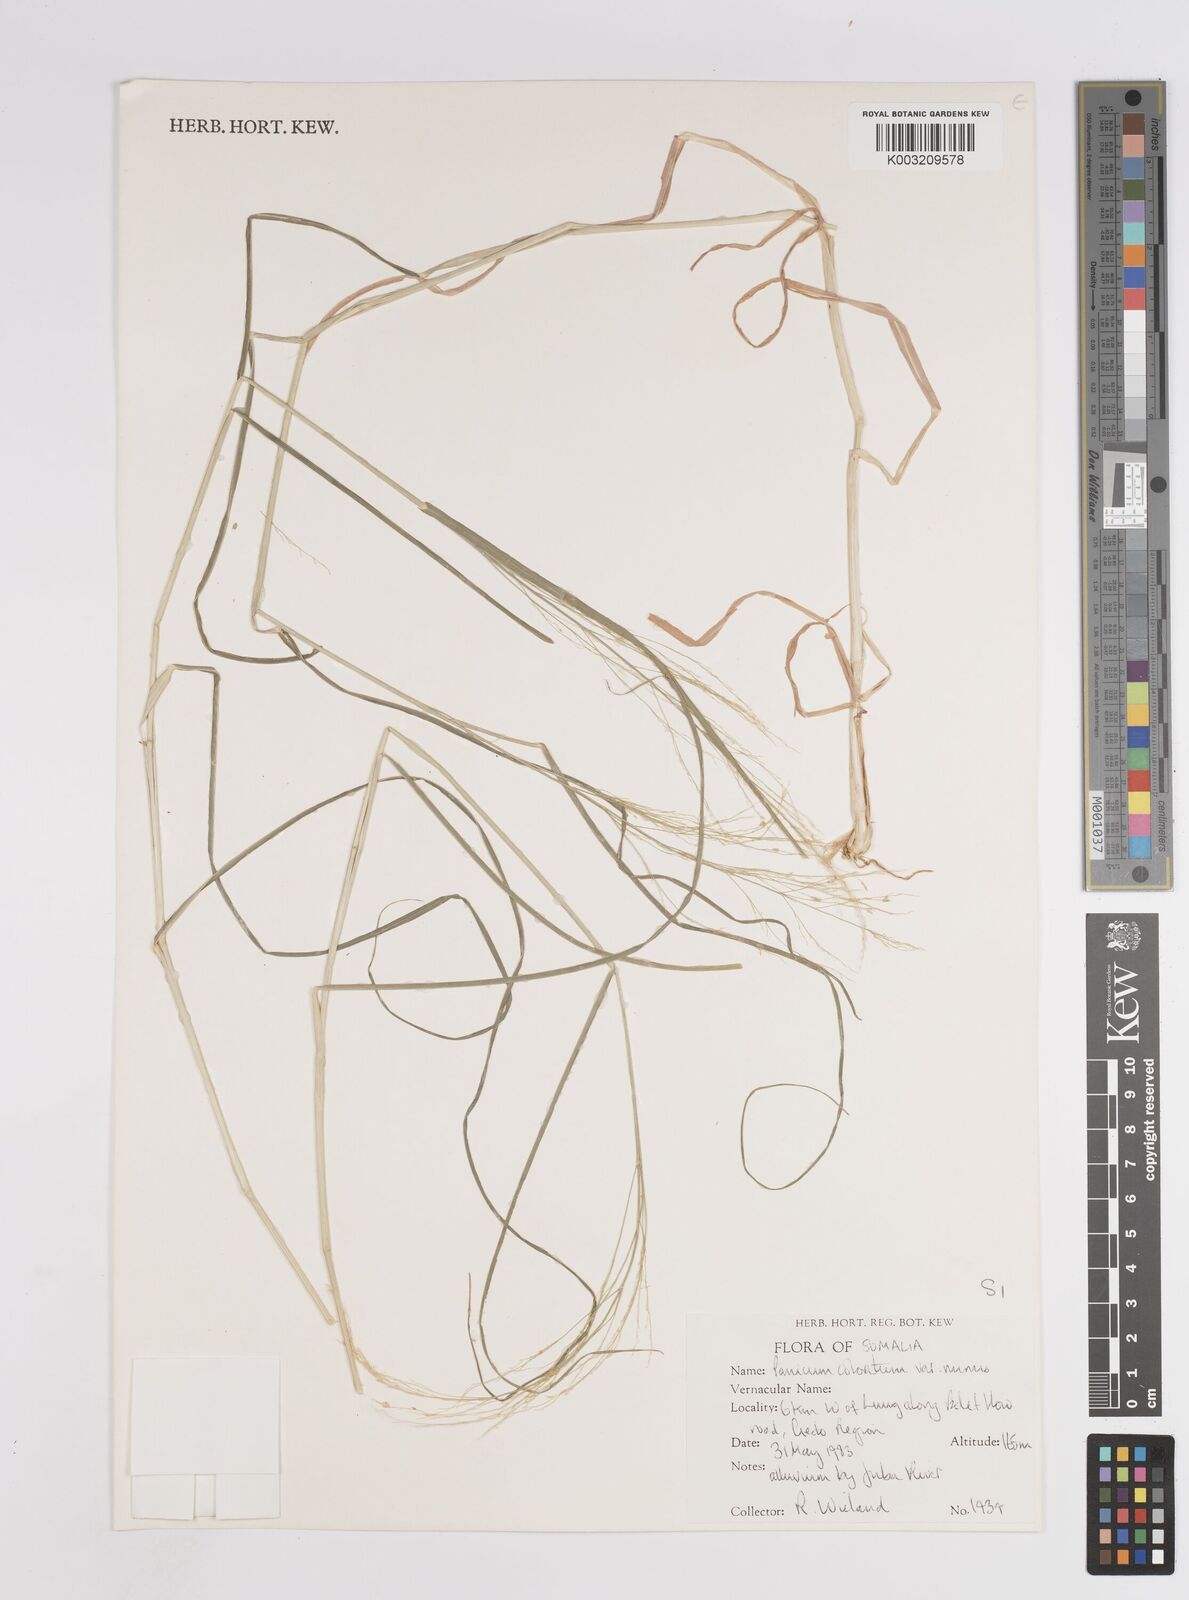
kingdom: Plantae
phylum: Tracheophyta
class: Liliopsida
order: Poales
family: Poaceae
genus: Panicum
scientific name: Panicum coloratum
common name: Kleingrass
